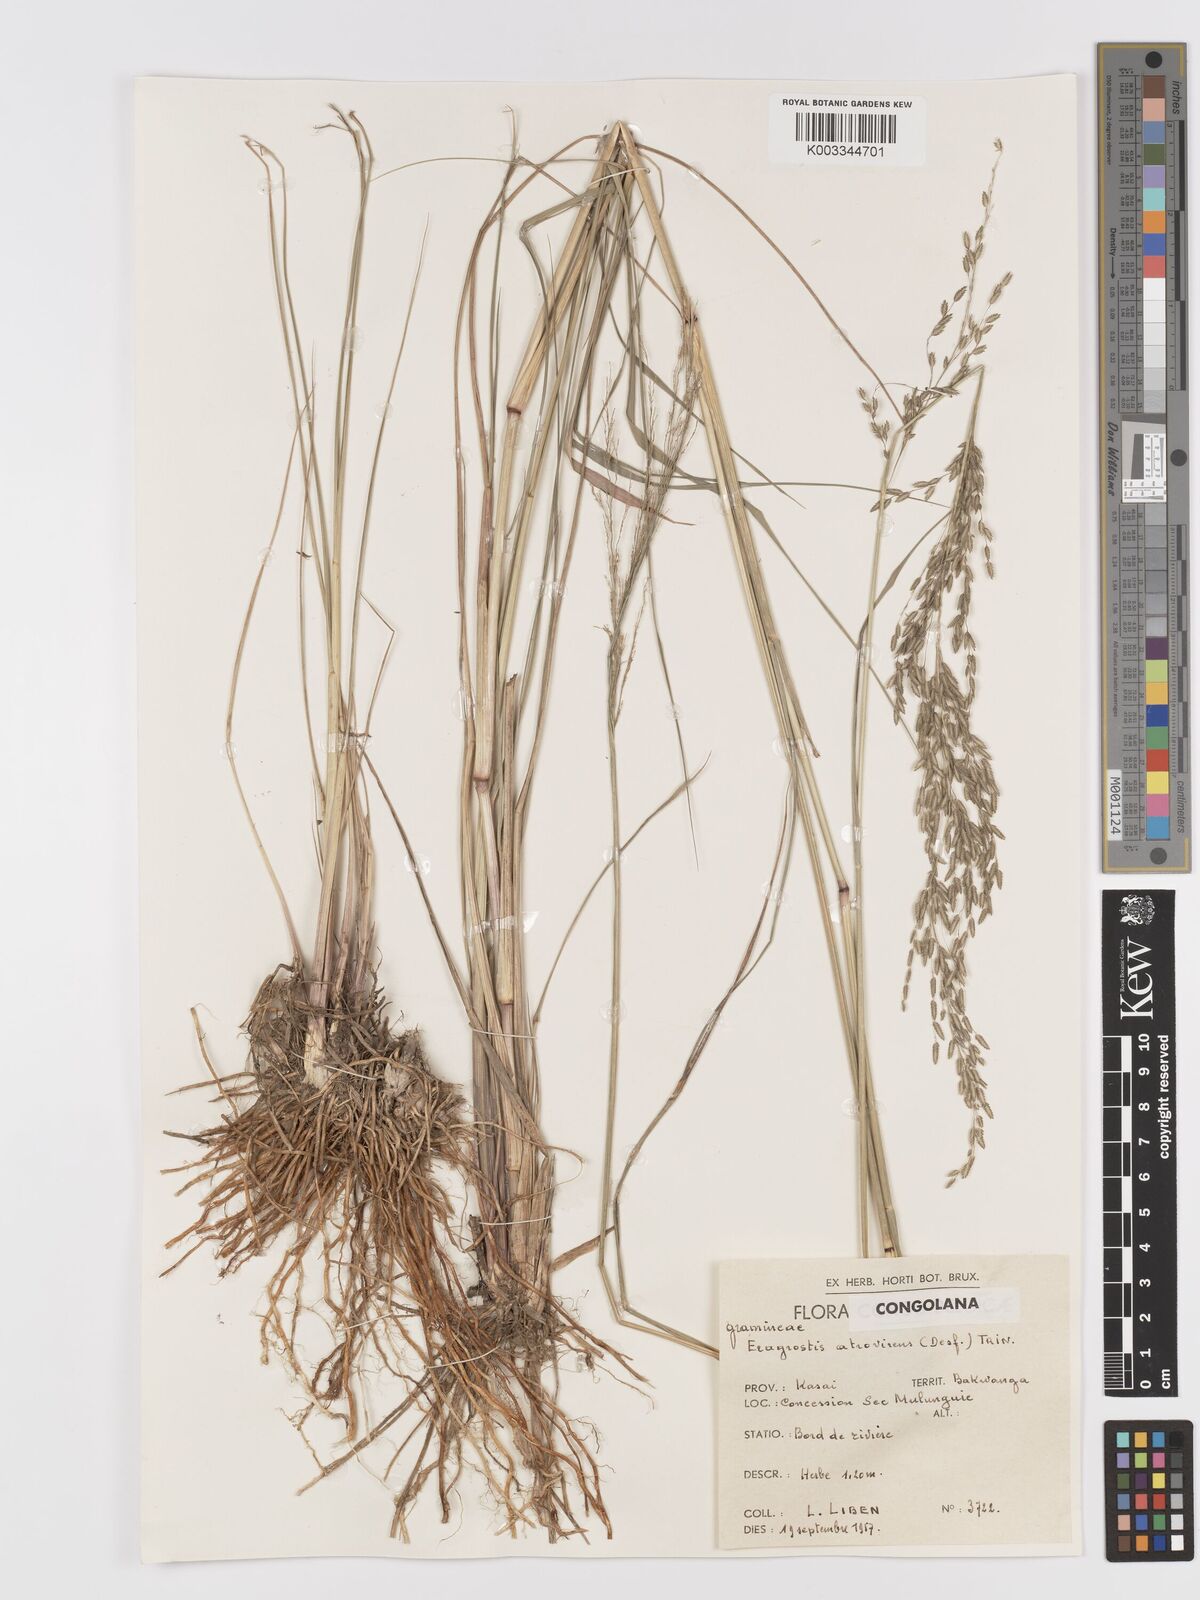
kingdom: Plantae
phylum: Tracheophyta
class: Liliopsida
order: Poales
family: Poaceae
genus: Eragrostis
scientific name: Eragrostis atrovirens
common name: Thalia lovegrass
